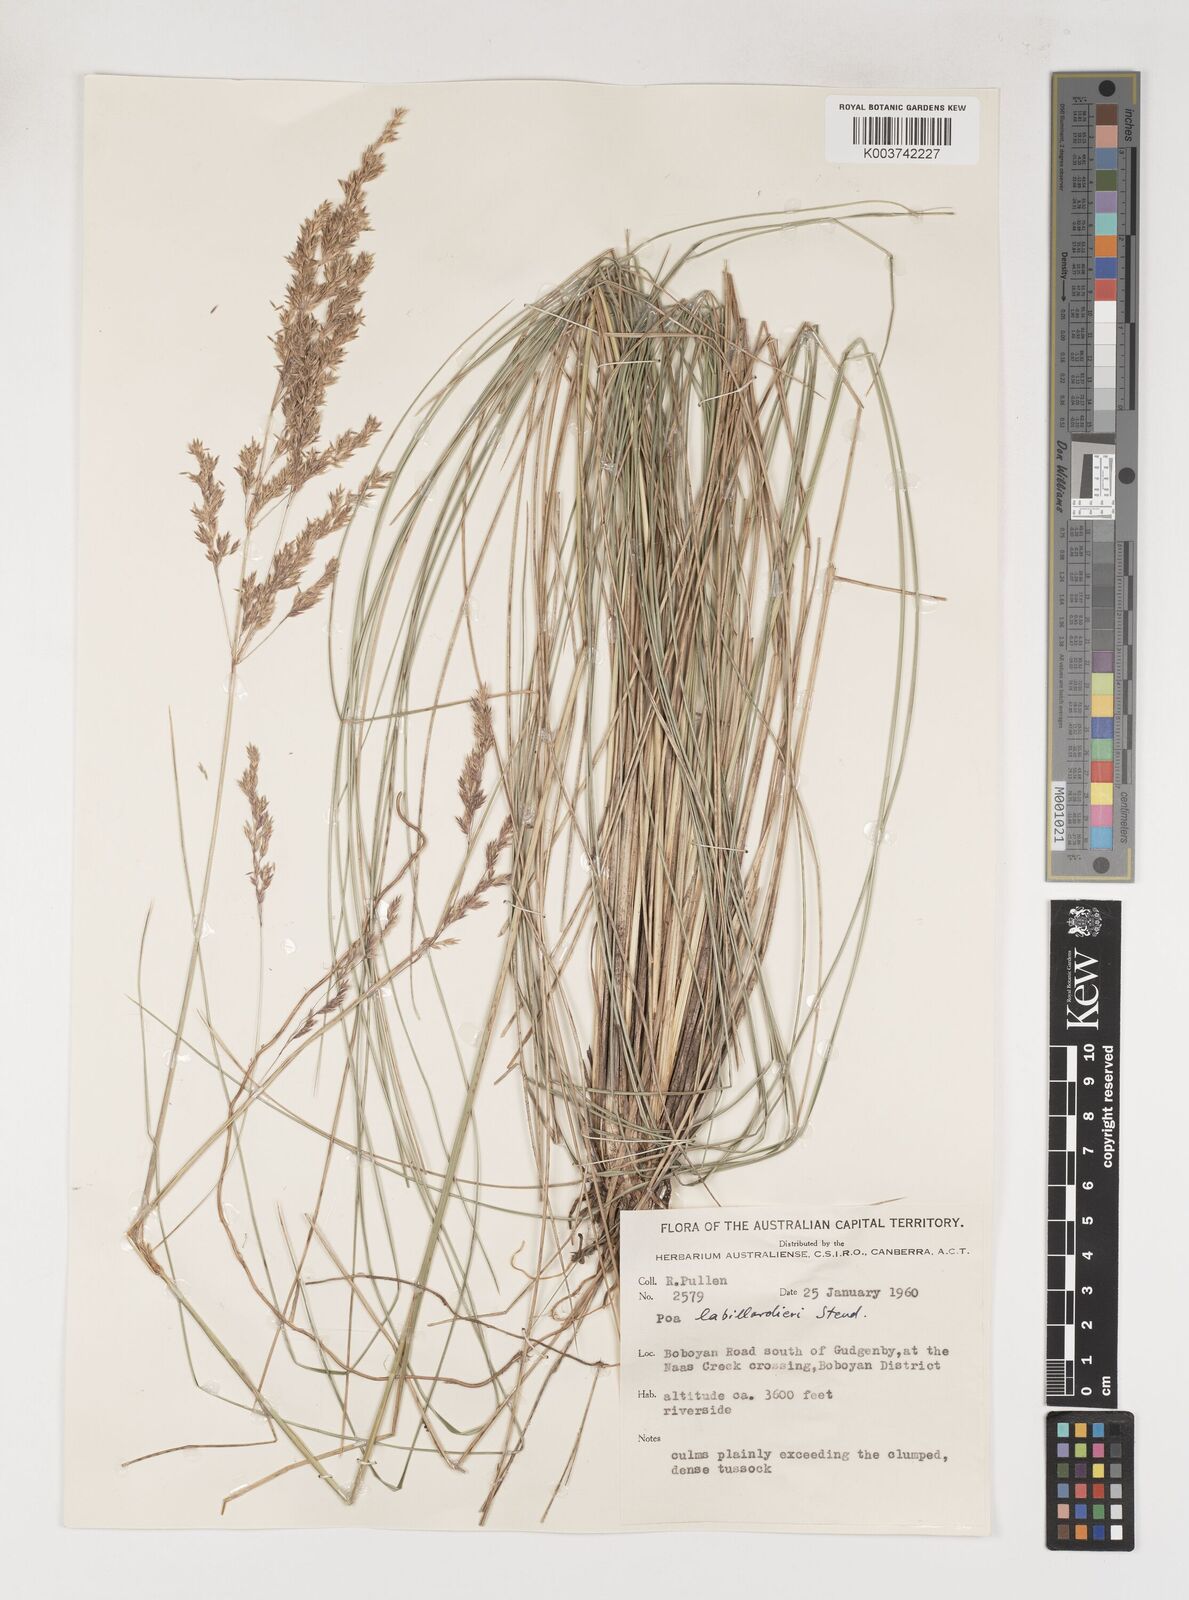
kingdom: Plantae
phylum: Tracheophyta
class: Liliopsida
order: Poales
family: Poaceae
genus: Poa
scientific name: Poa labillardierei
